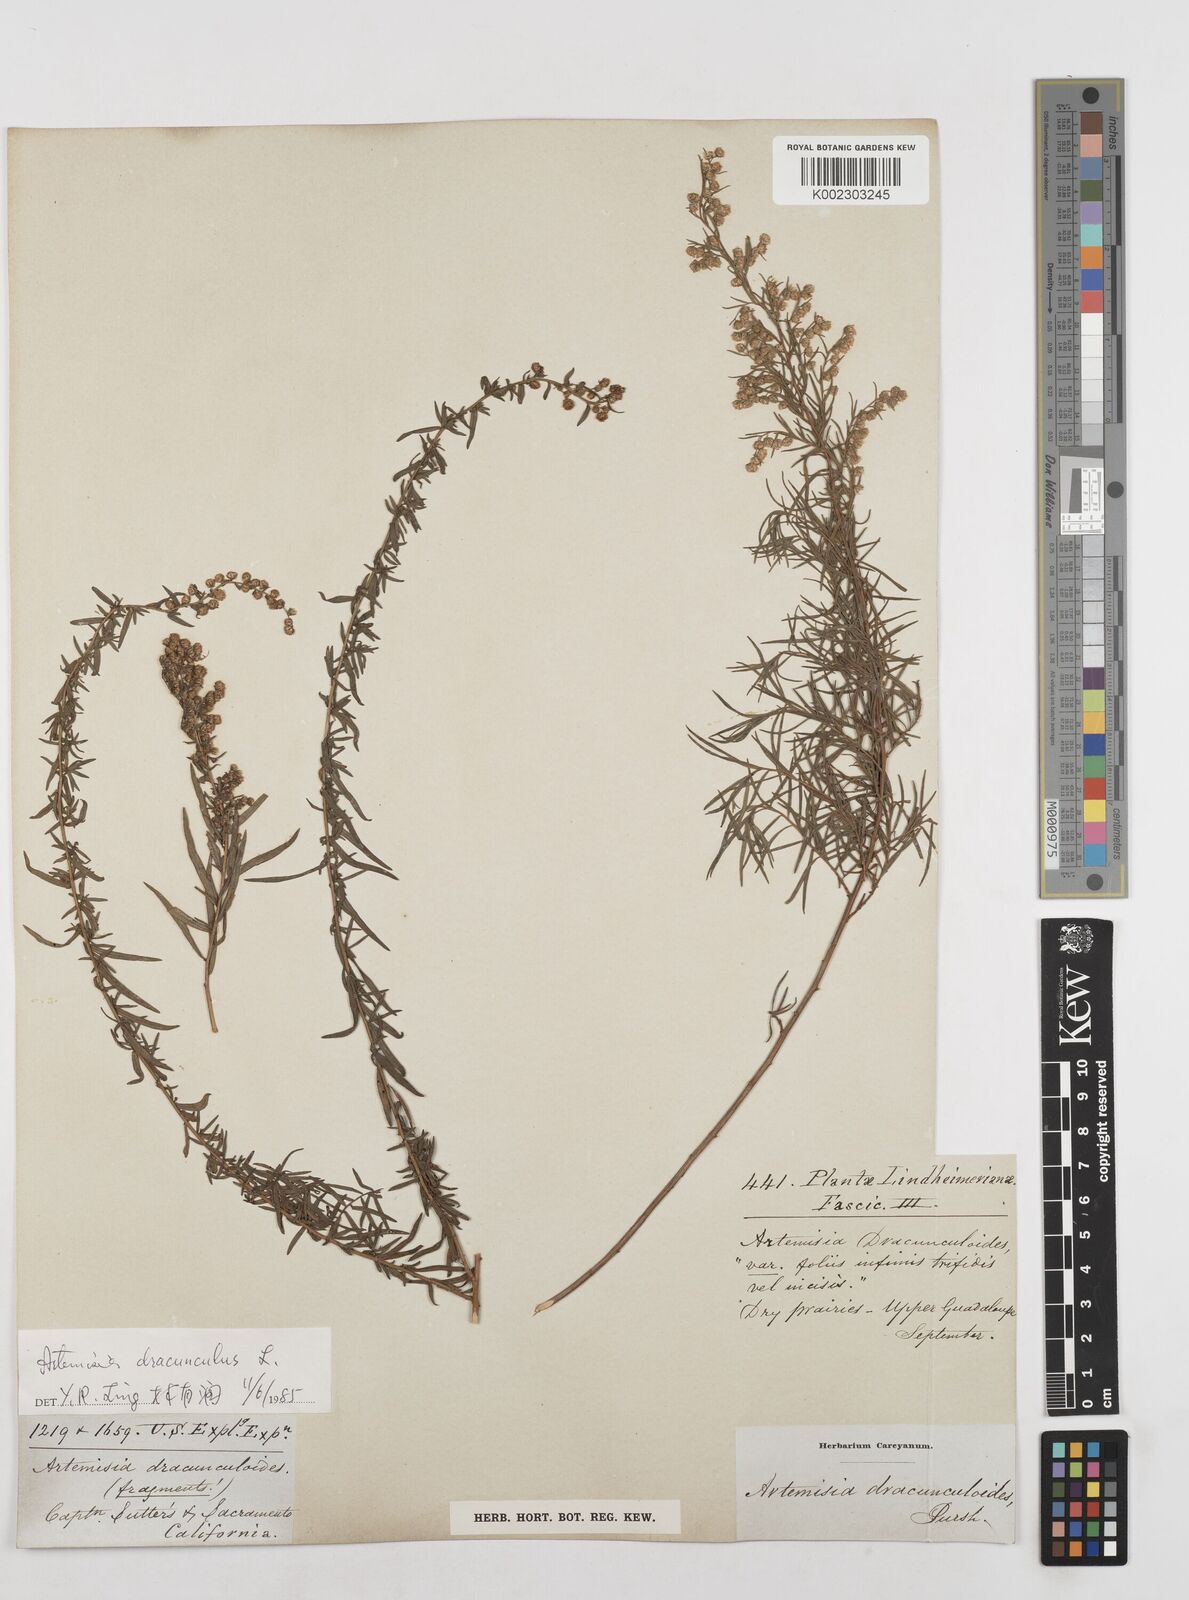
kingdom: Plantae
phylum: Tracheophyta
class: Magnoliopsida
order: Asterales
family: Asteraceae
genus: Artemisia
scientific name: Artemisia dracunculus
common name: Tarragon
